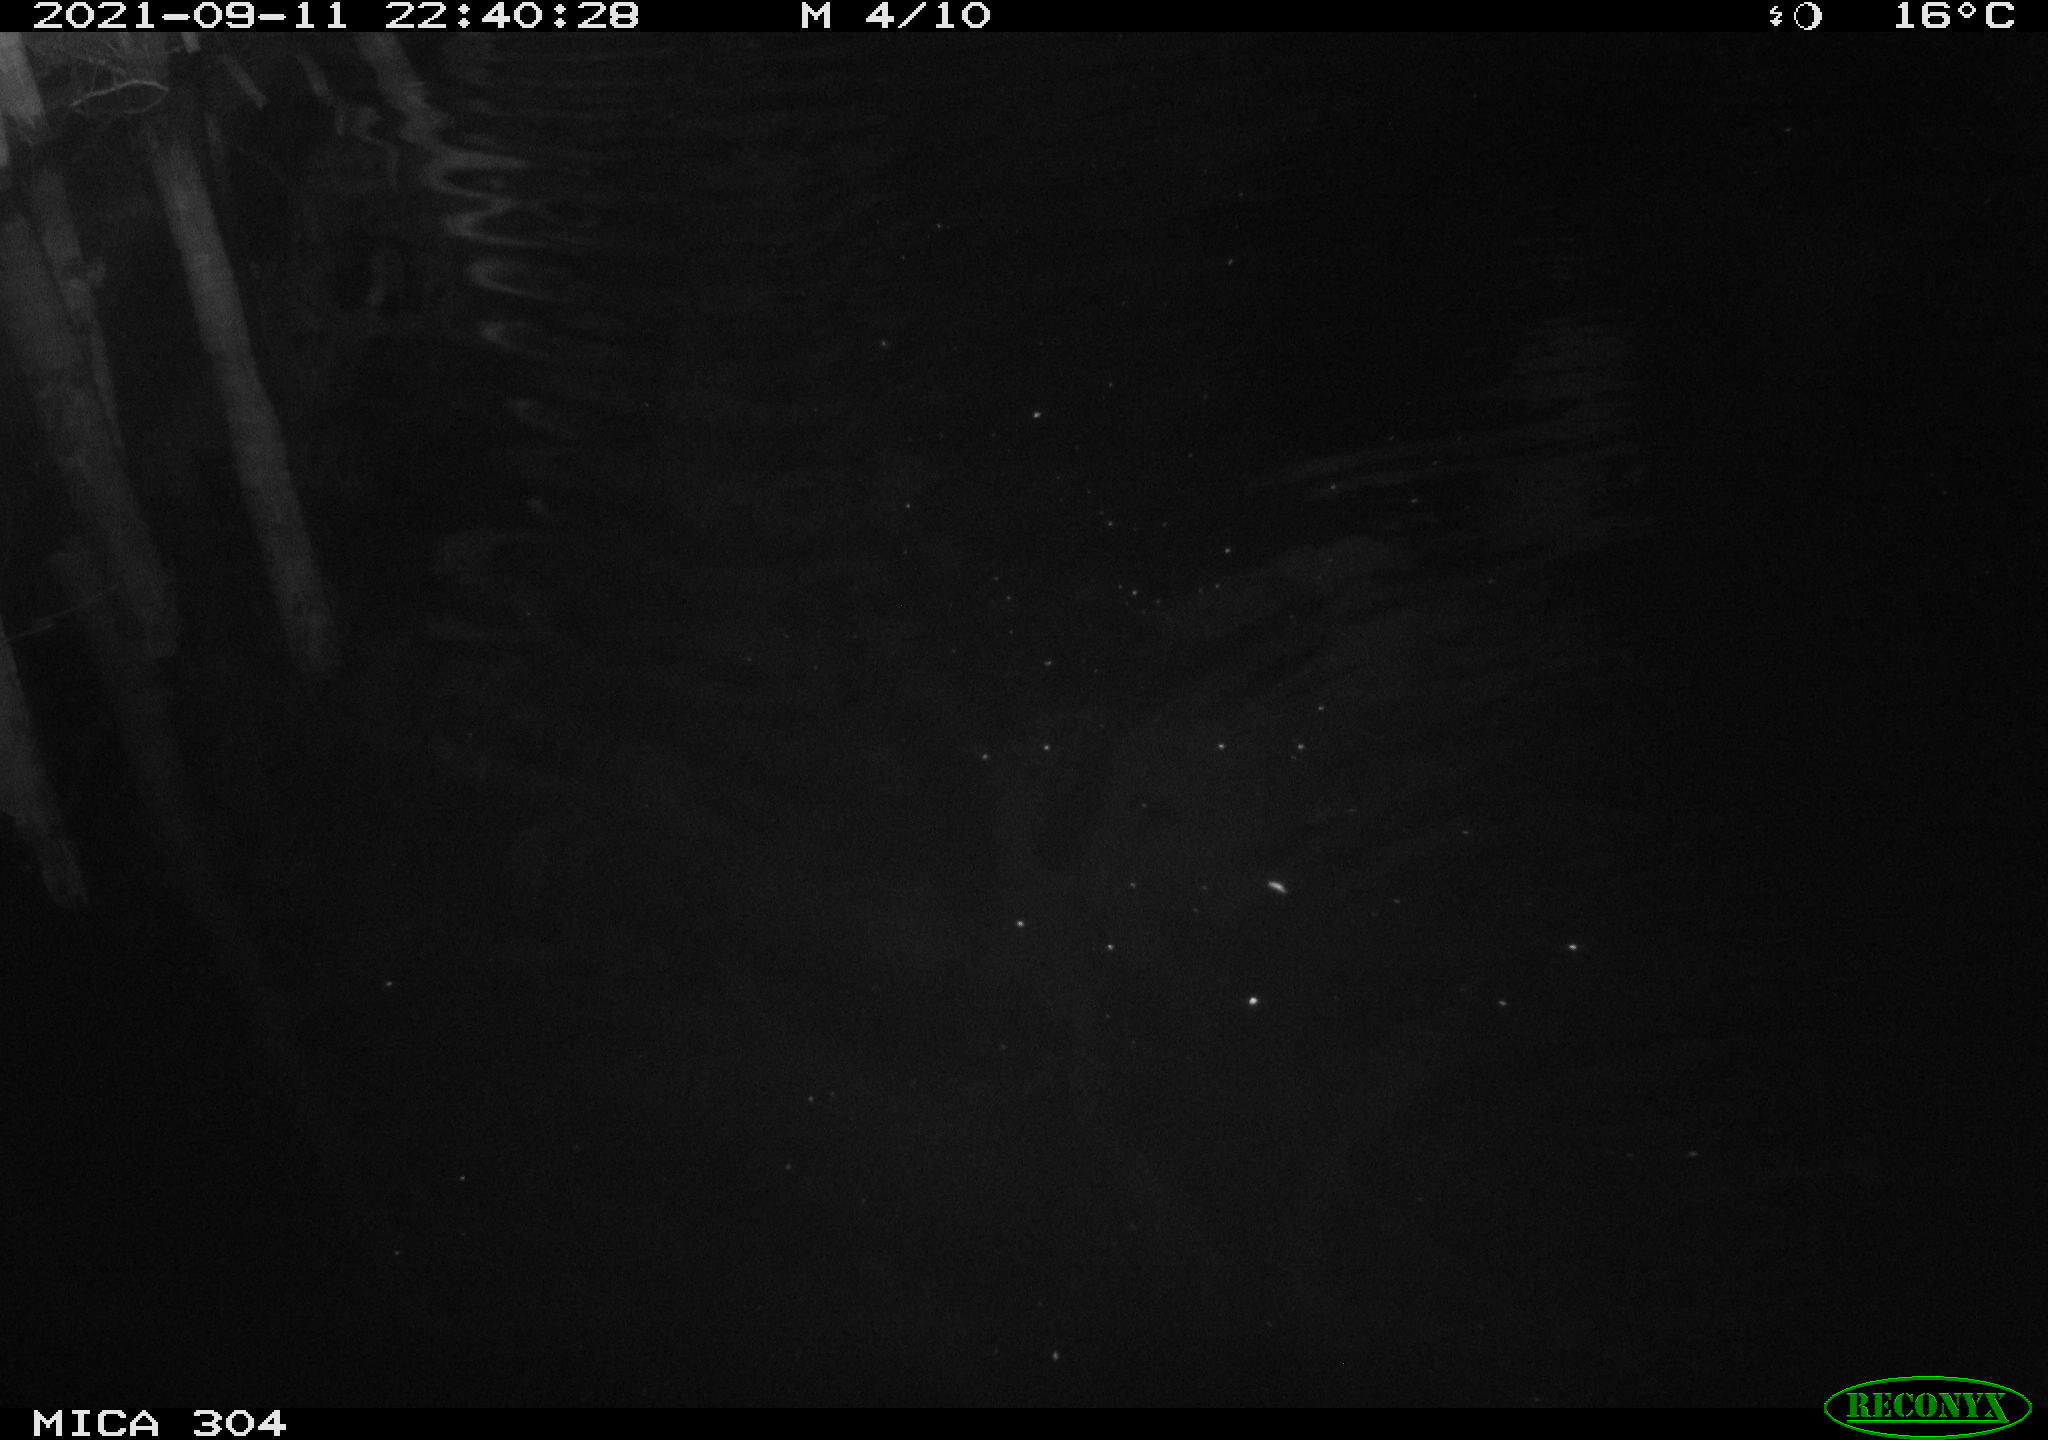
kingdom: Animalia
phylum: Chordata
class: Mammalia
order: Rodentia
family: Cricetidae
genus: Ondatra
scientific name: Ondatra zibethicus
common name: Muskrat
